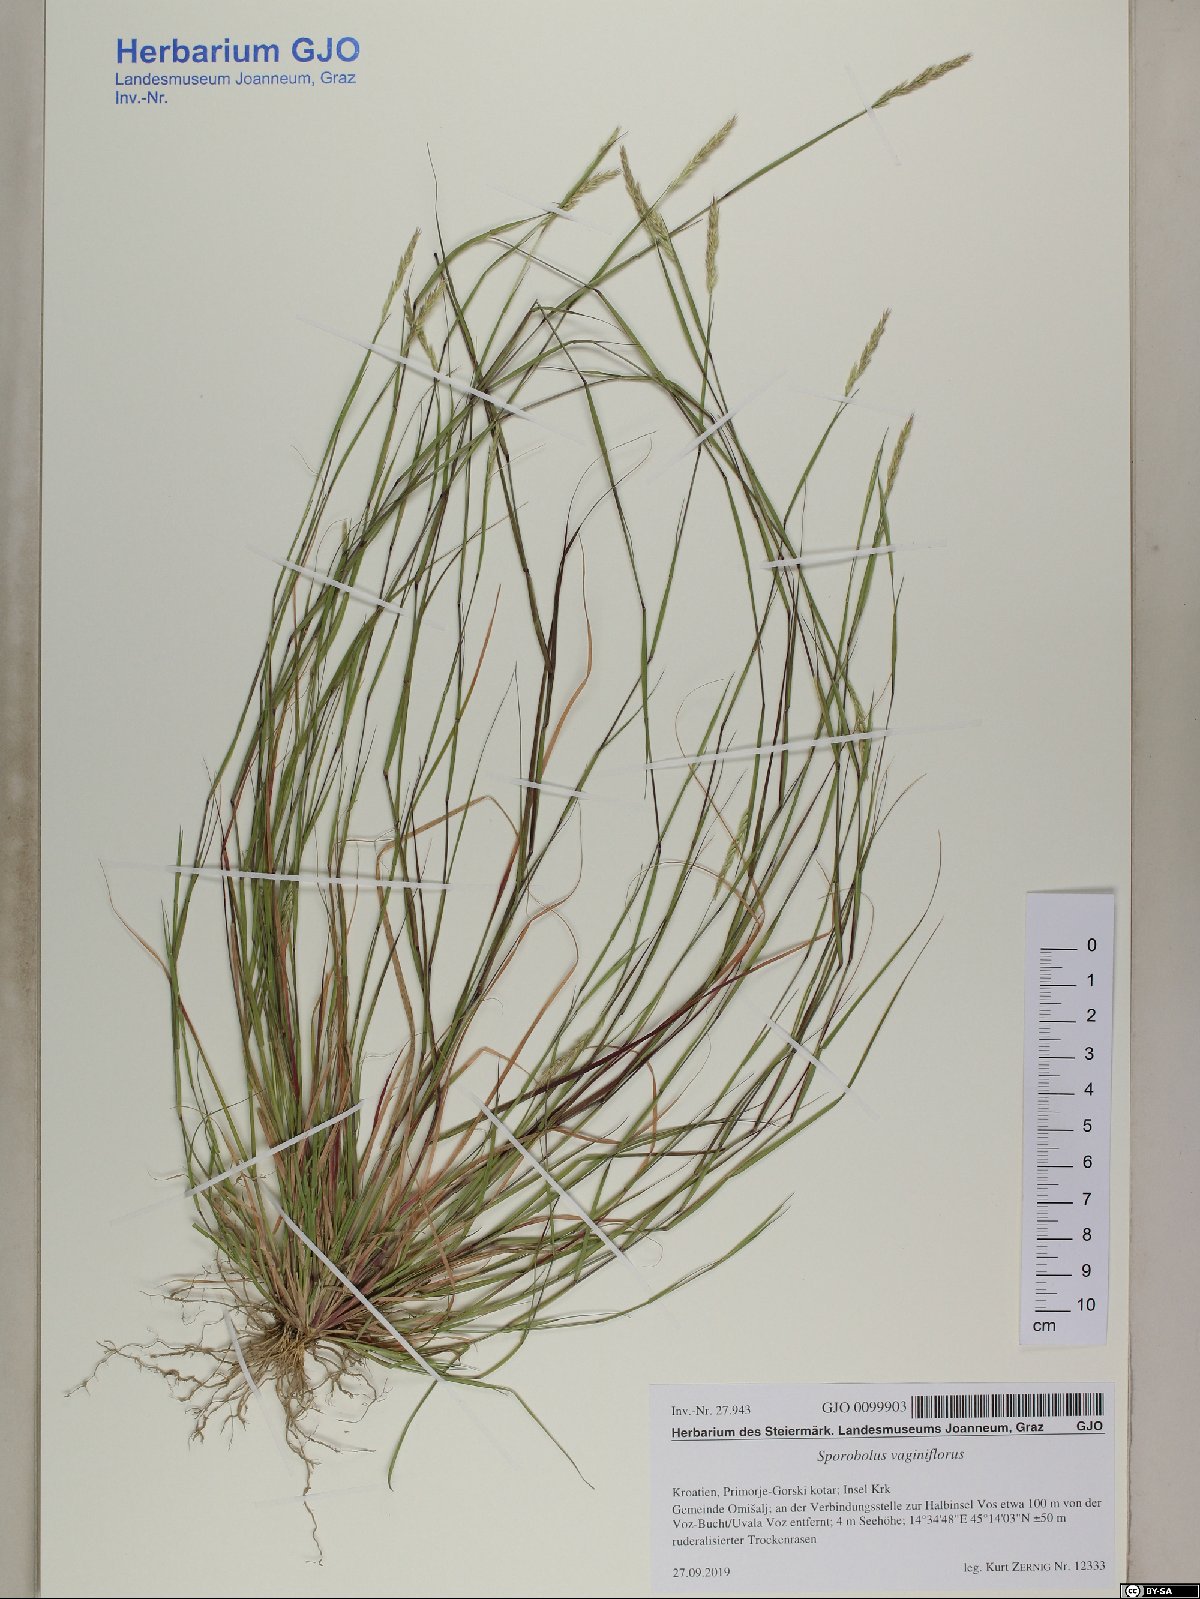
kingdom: Plantae
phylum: Tracheophyta
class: Liliopsida
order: Poales
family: Poaceae
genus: Sporobolus
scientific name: Sporobolus vaginiflorus
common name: Poverty dropseed
